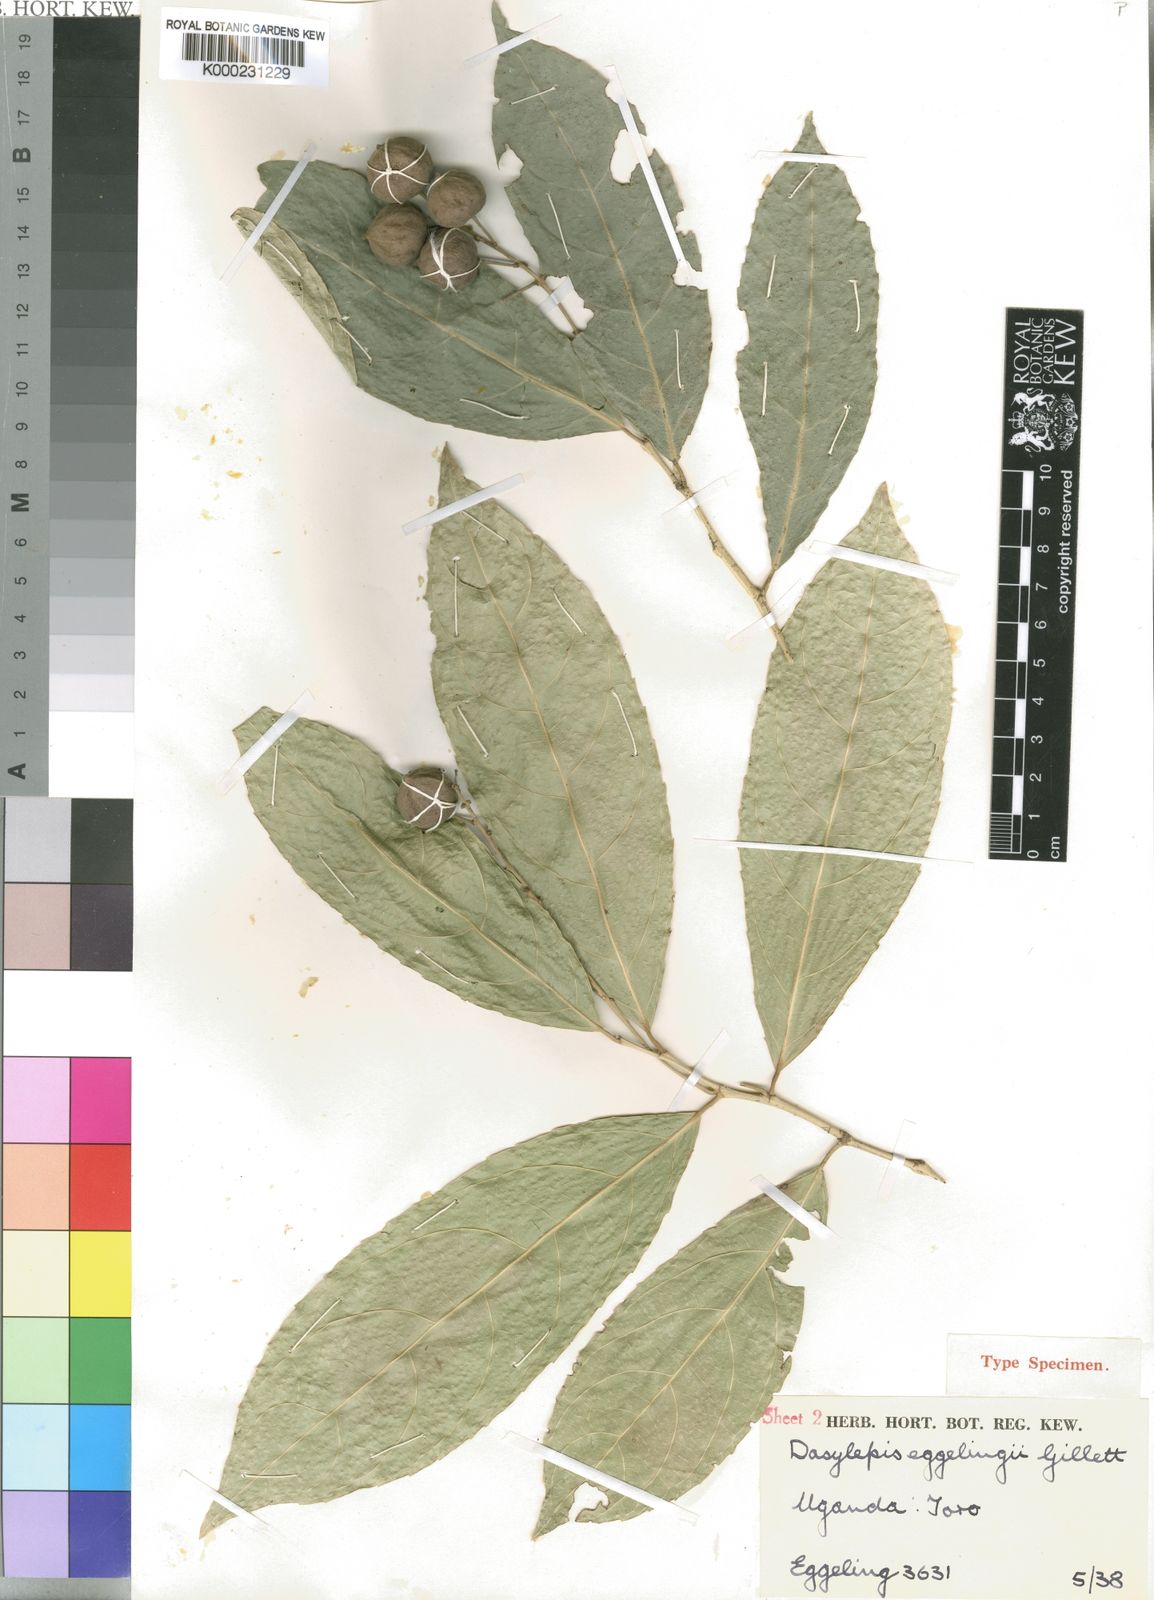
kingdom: Plantae
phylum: Tracheophyta
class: Magnoliopsida
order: Malpighiales
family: Achariaceae
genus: Dasylepis
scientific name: Dasylepis eggelingii
